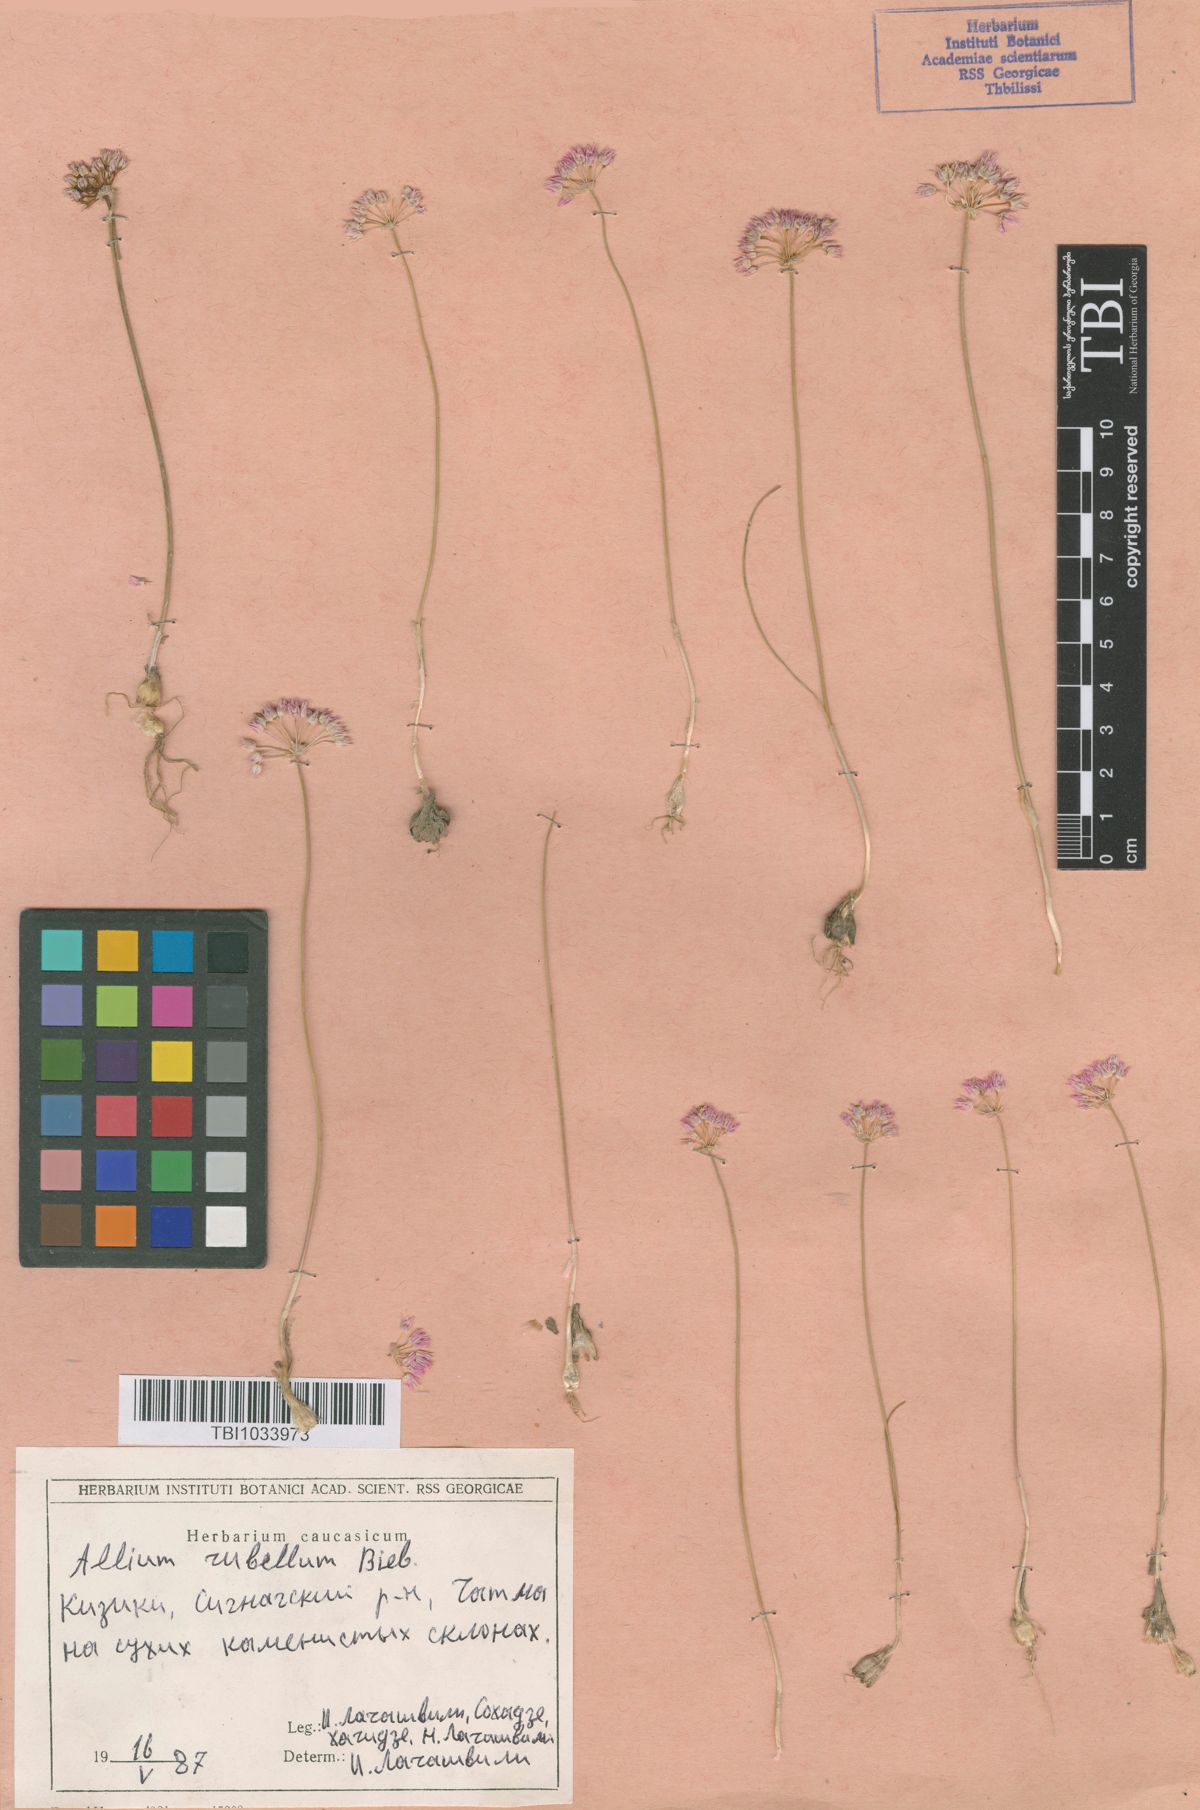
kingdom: Plantae
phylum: Tracheophyta
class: Liliopsida
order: Asparagales
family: Amaryllidaceae
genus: Allium
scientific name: Allium rubellum
